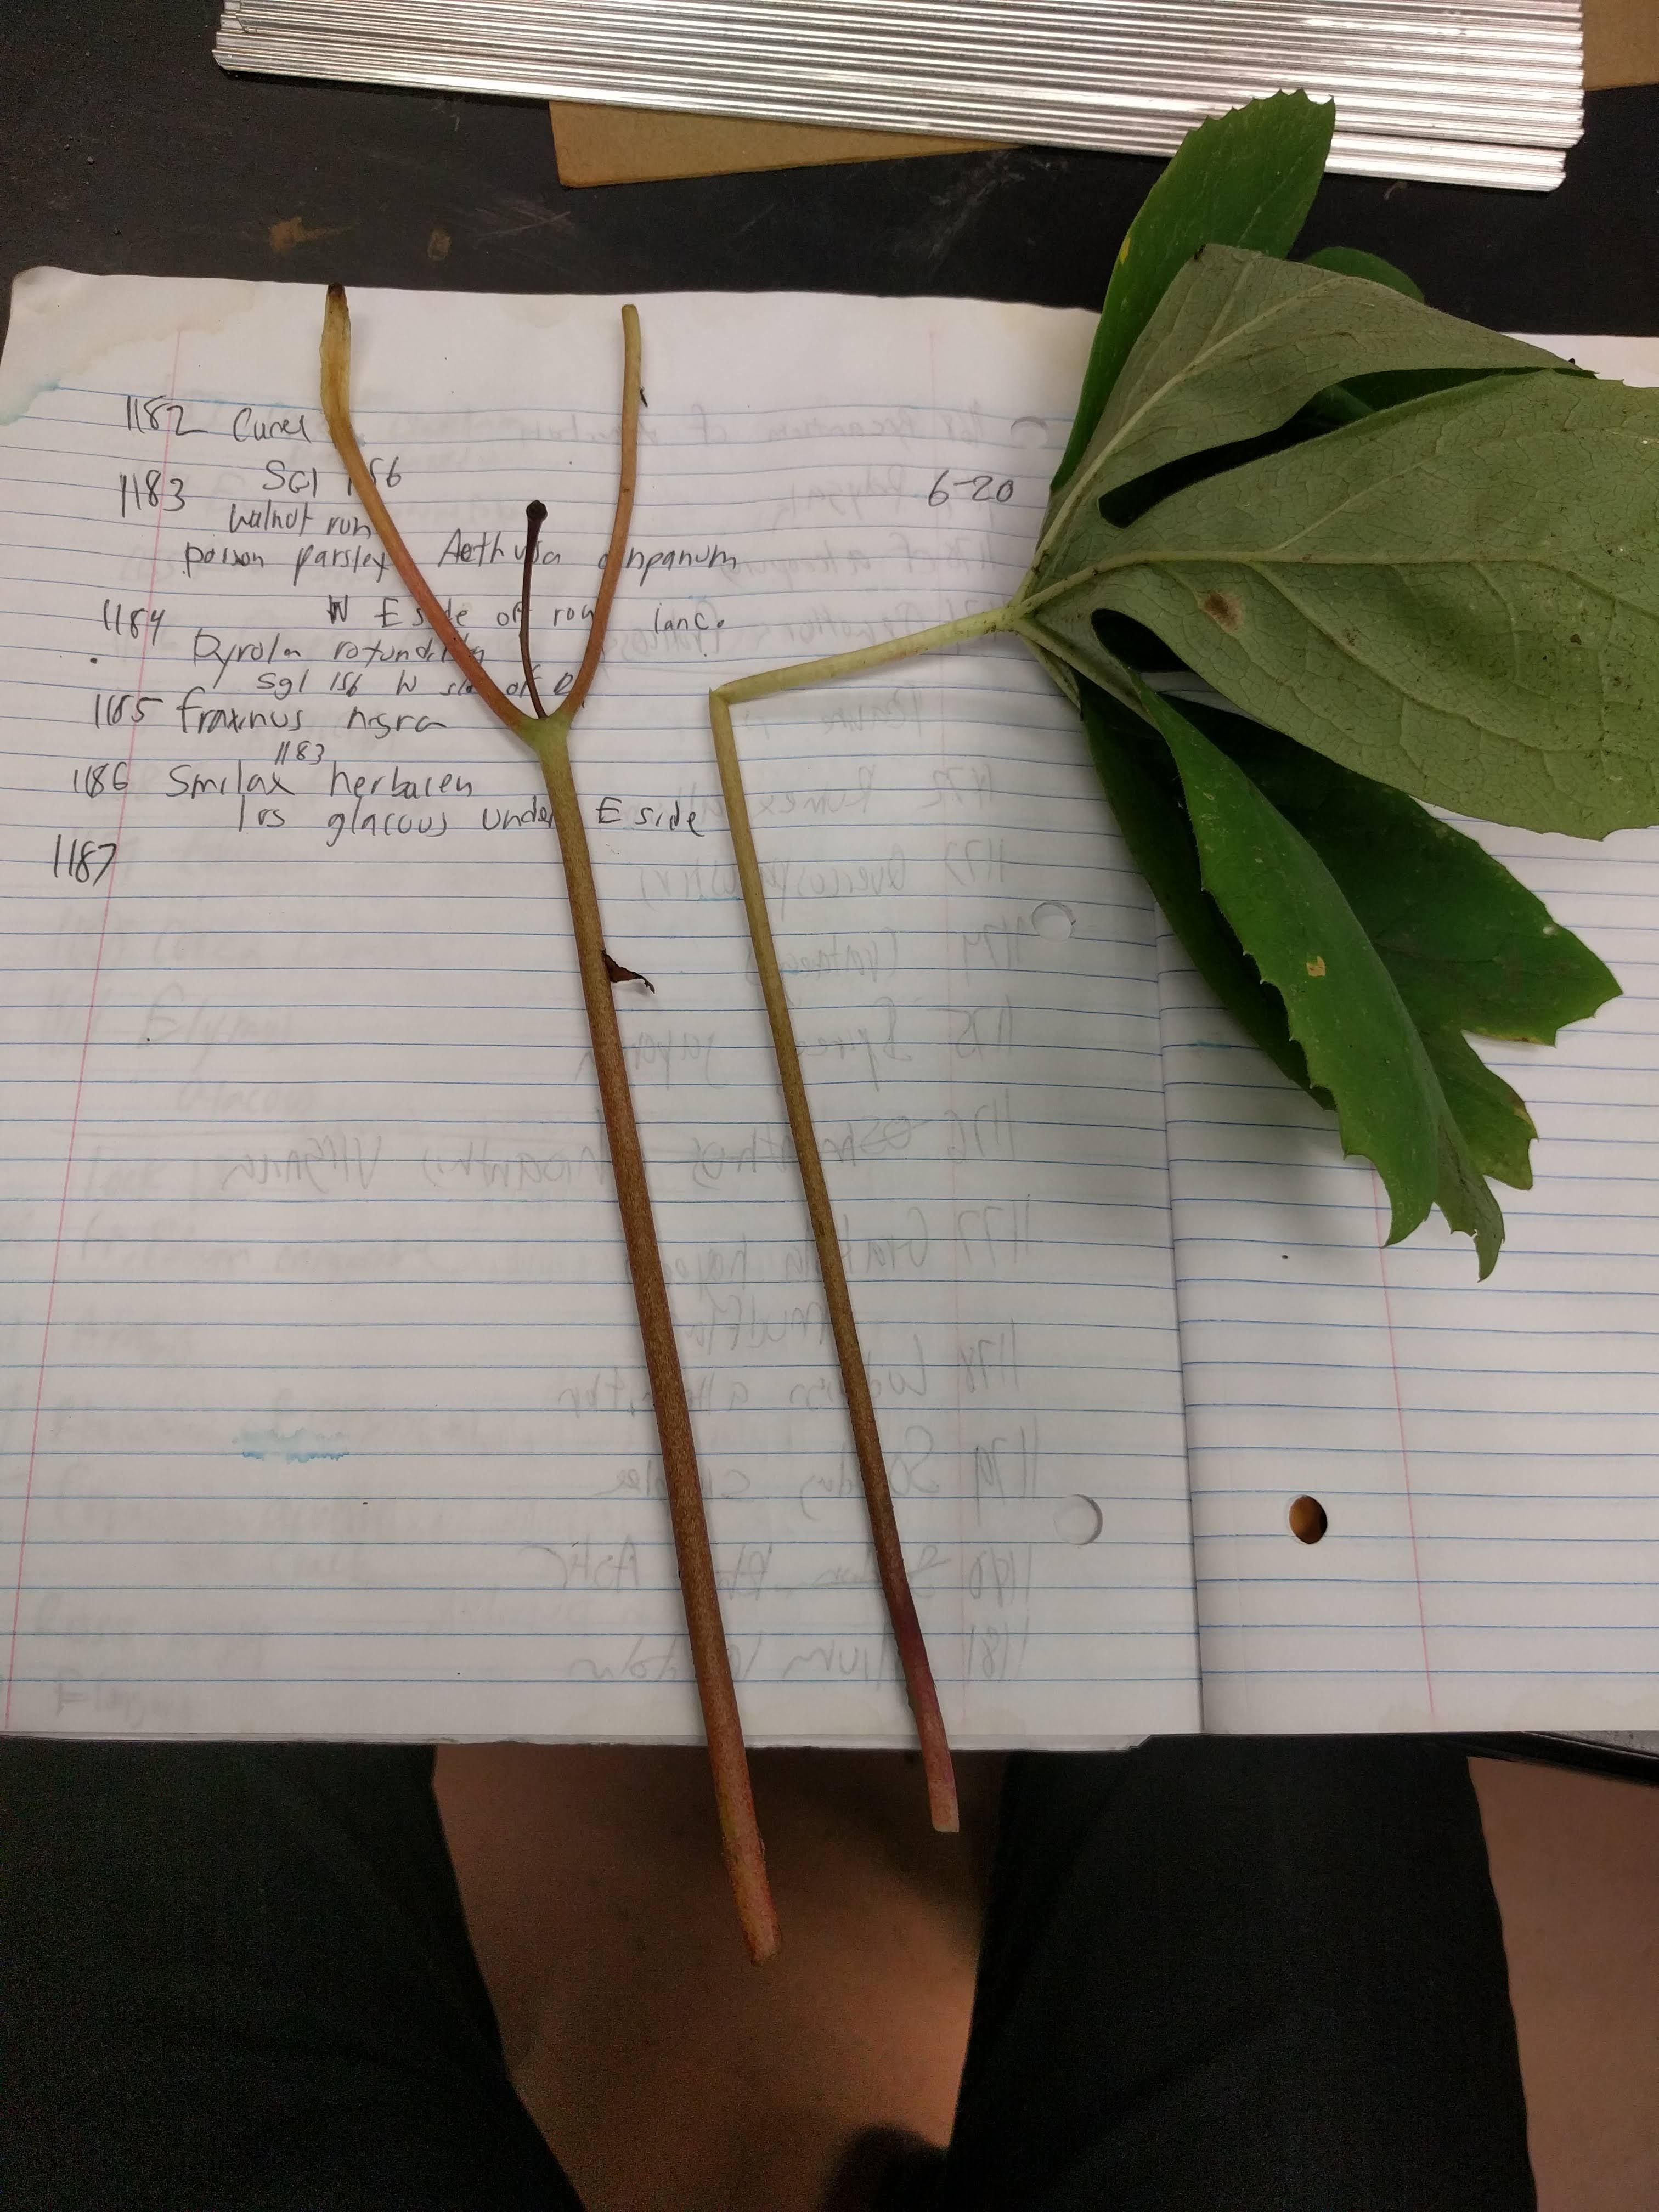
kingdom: Plantae
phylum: Tracheophyta
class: Magnoliopsida
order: Ranunculales
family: Berberidaceae
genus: Podophyllum
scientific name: Podophyllum peltatum
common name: Wild mandrake
